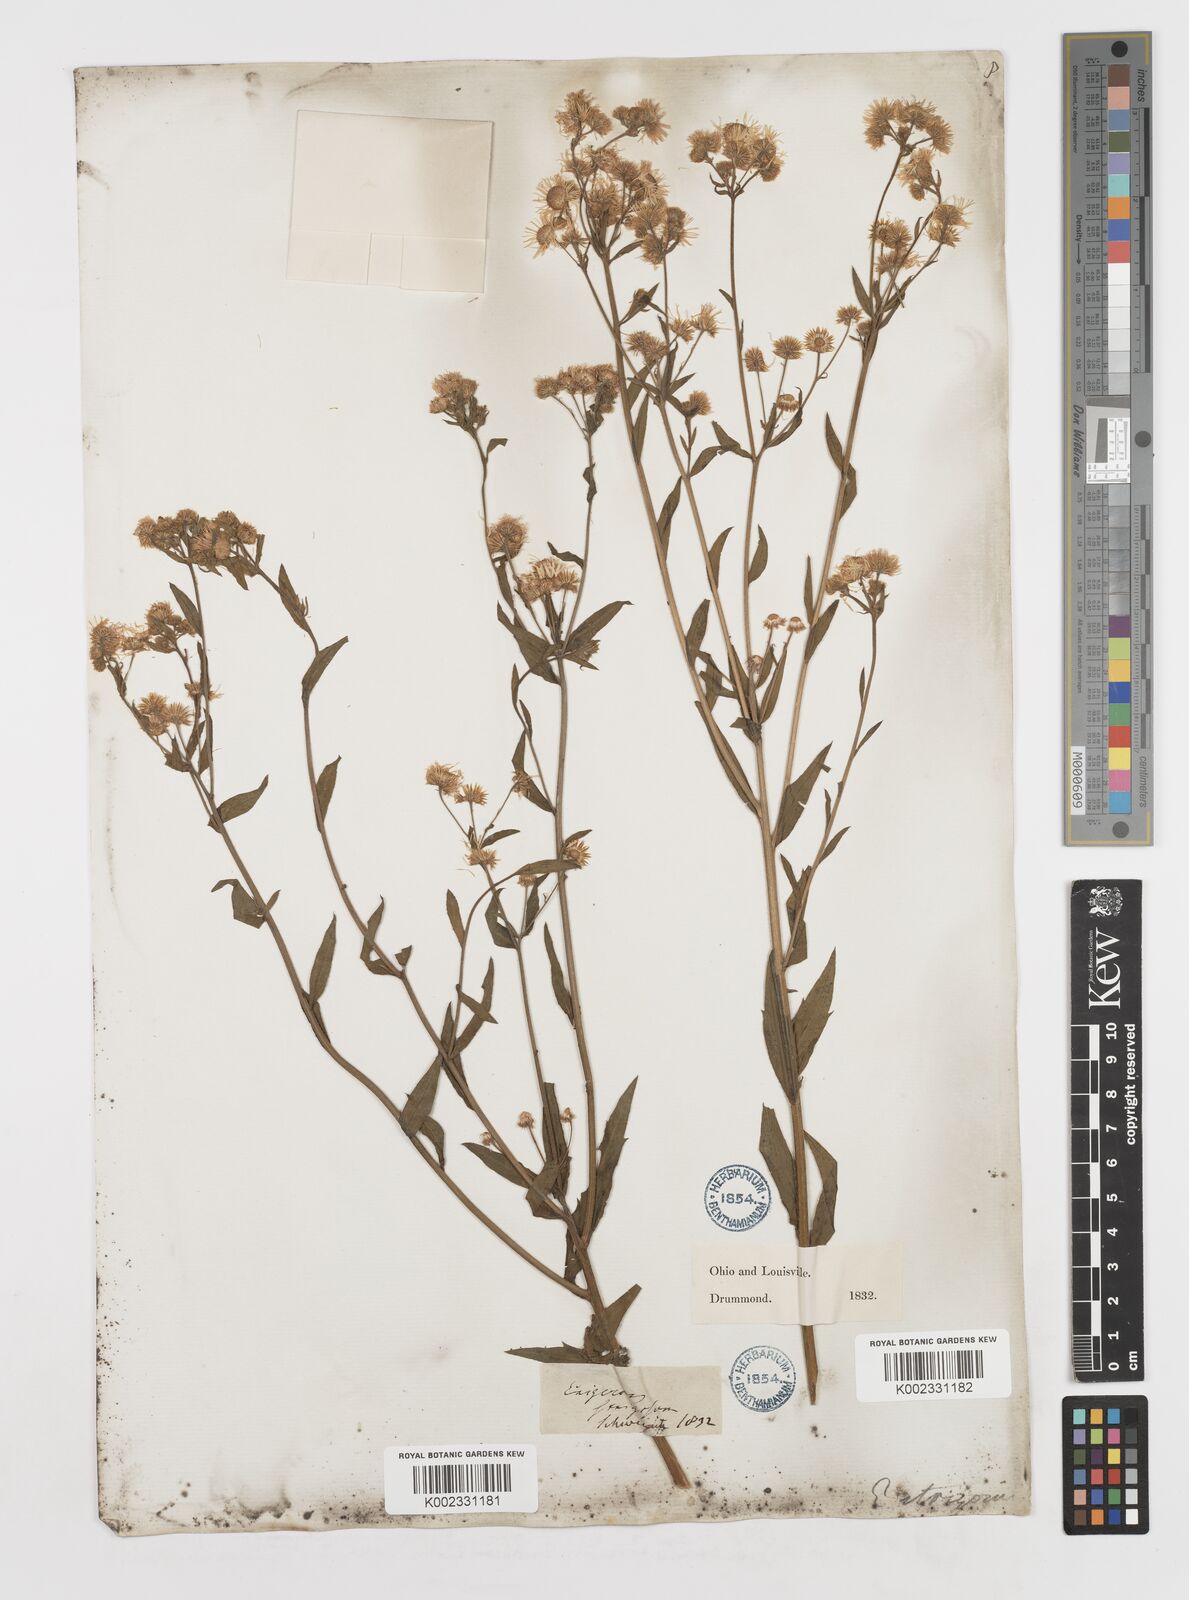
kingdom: Plantae
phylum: Tracheophyta
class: Magnoliopsida
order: Asterales
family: Asteraceae
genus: Erigeron
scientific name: Erigeron
